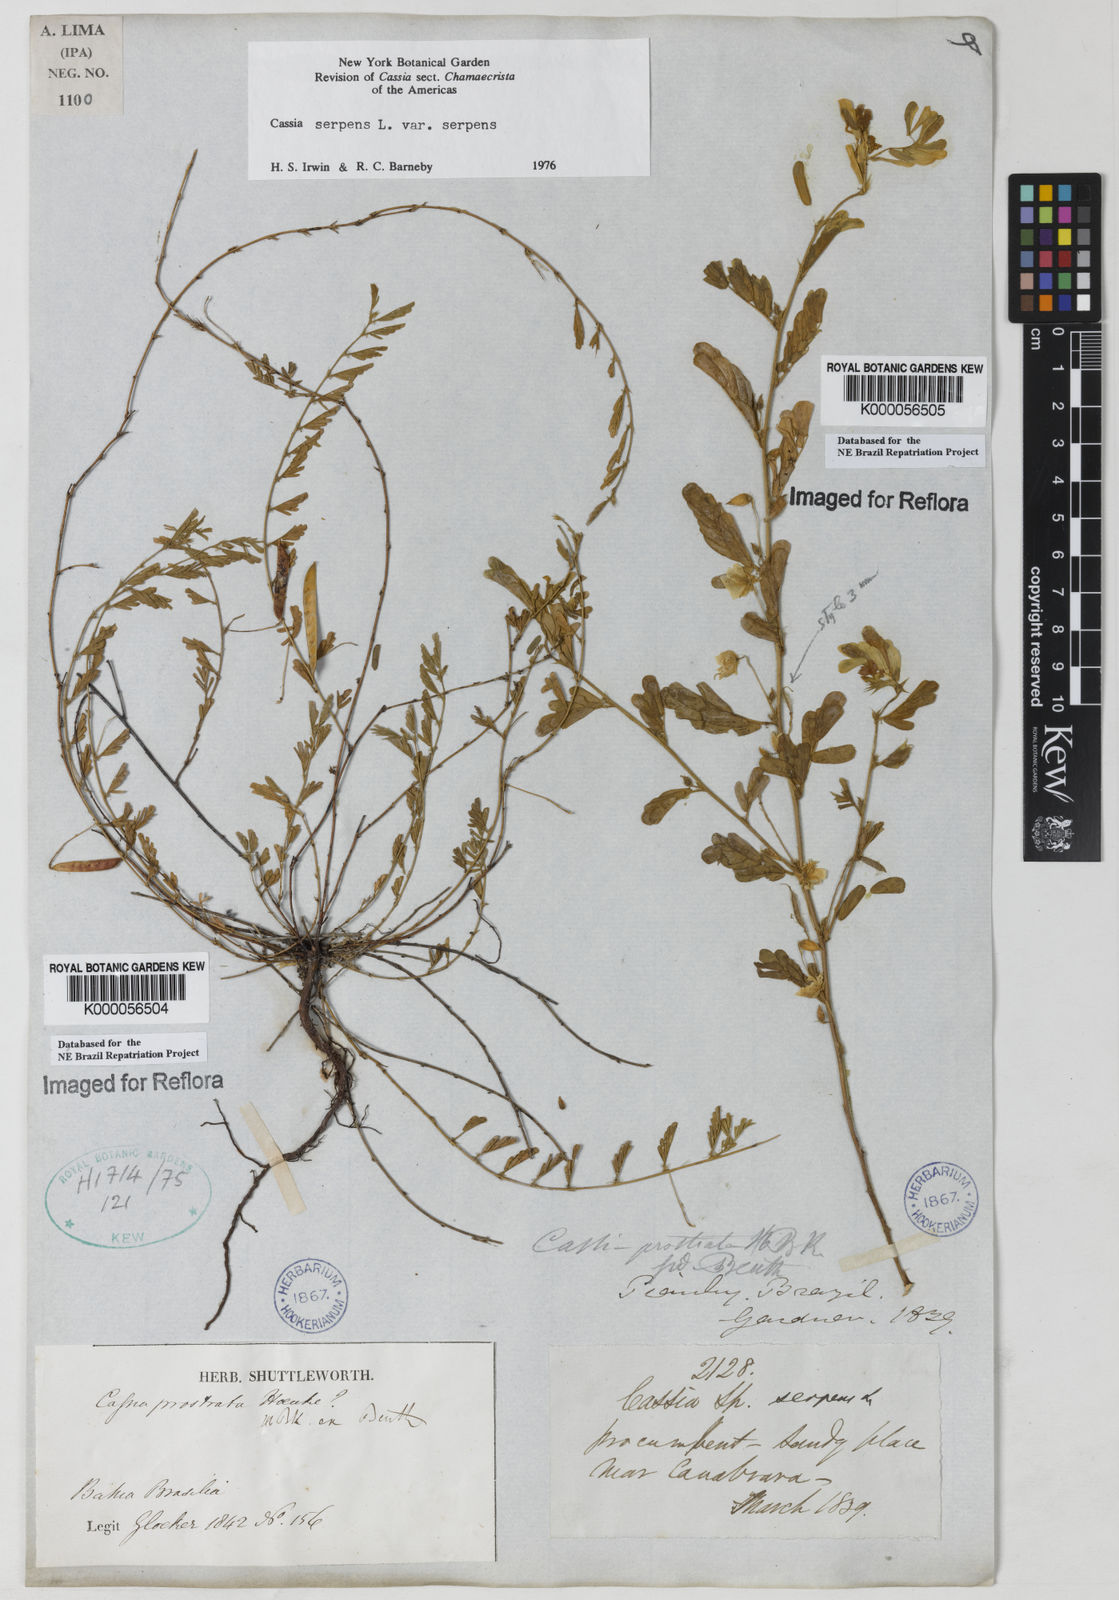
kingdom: Plantae
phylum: Tracheophyta
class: Magnoliopsida
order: Fabales
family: Fabaceae
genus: Chamaecrista
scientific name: Chamaecrista serpens
